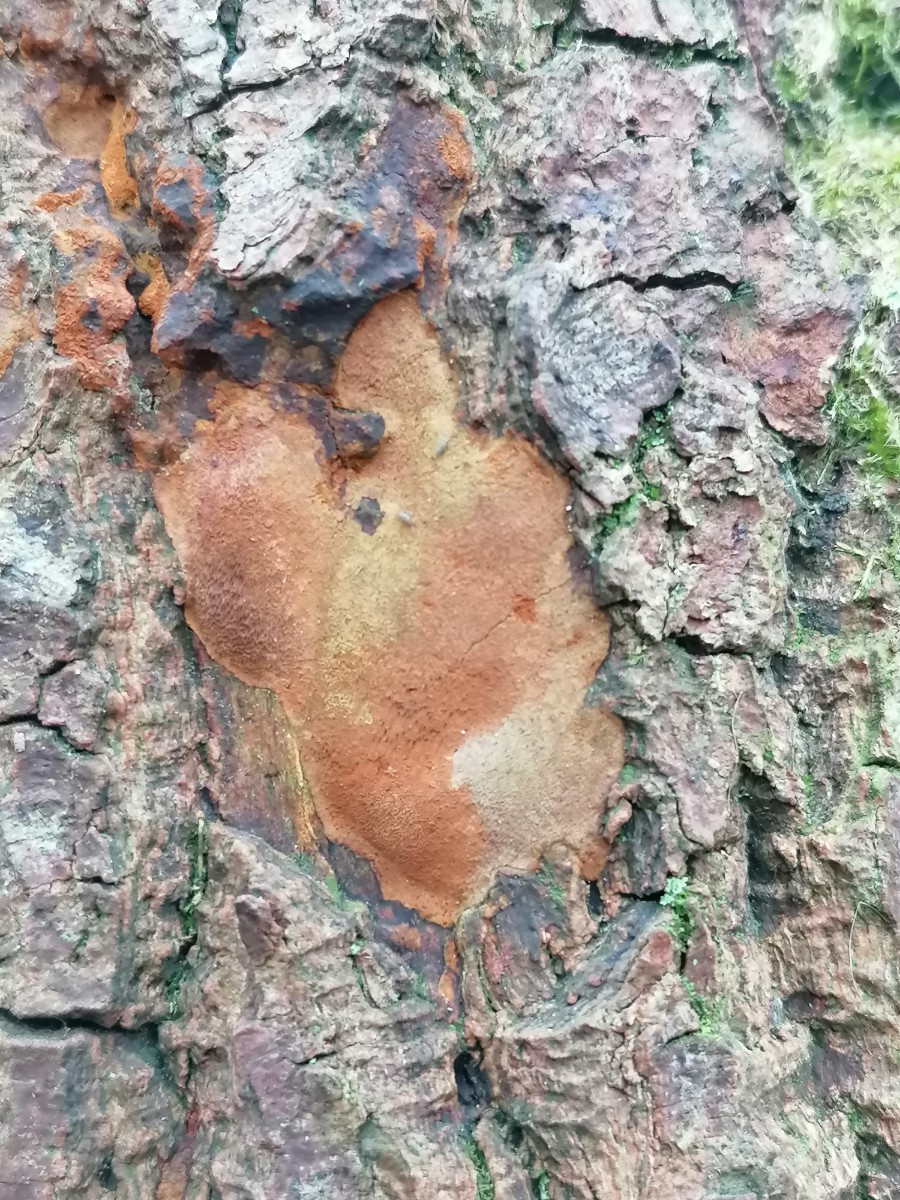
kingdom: Fungi
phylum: Basidiomycota
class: Agaricomycetes
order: Hymenochaetales
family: Hymenochaetaceae
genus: Fuscoporia
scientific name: Fuscoporia ferrea
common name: skorpe-ildporesvamp
